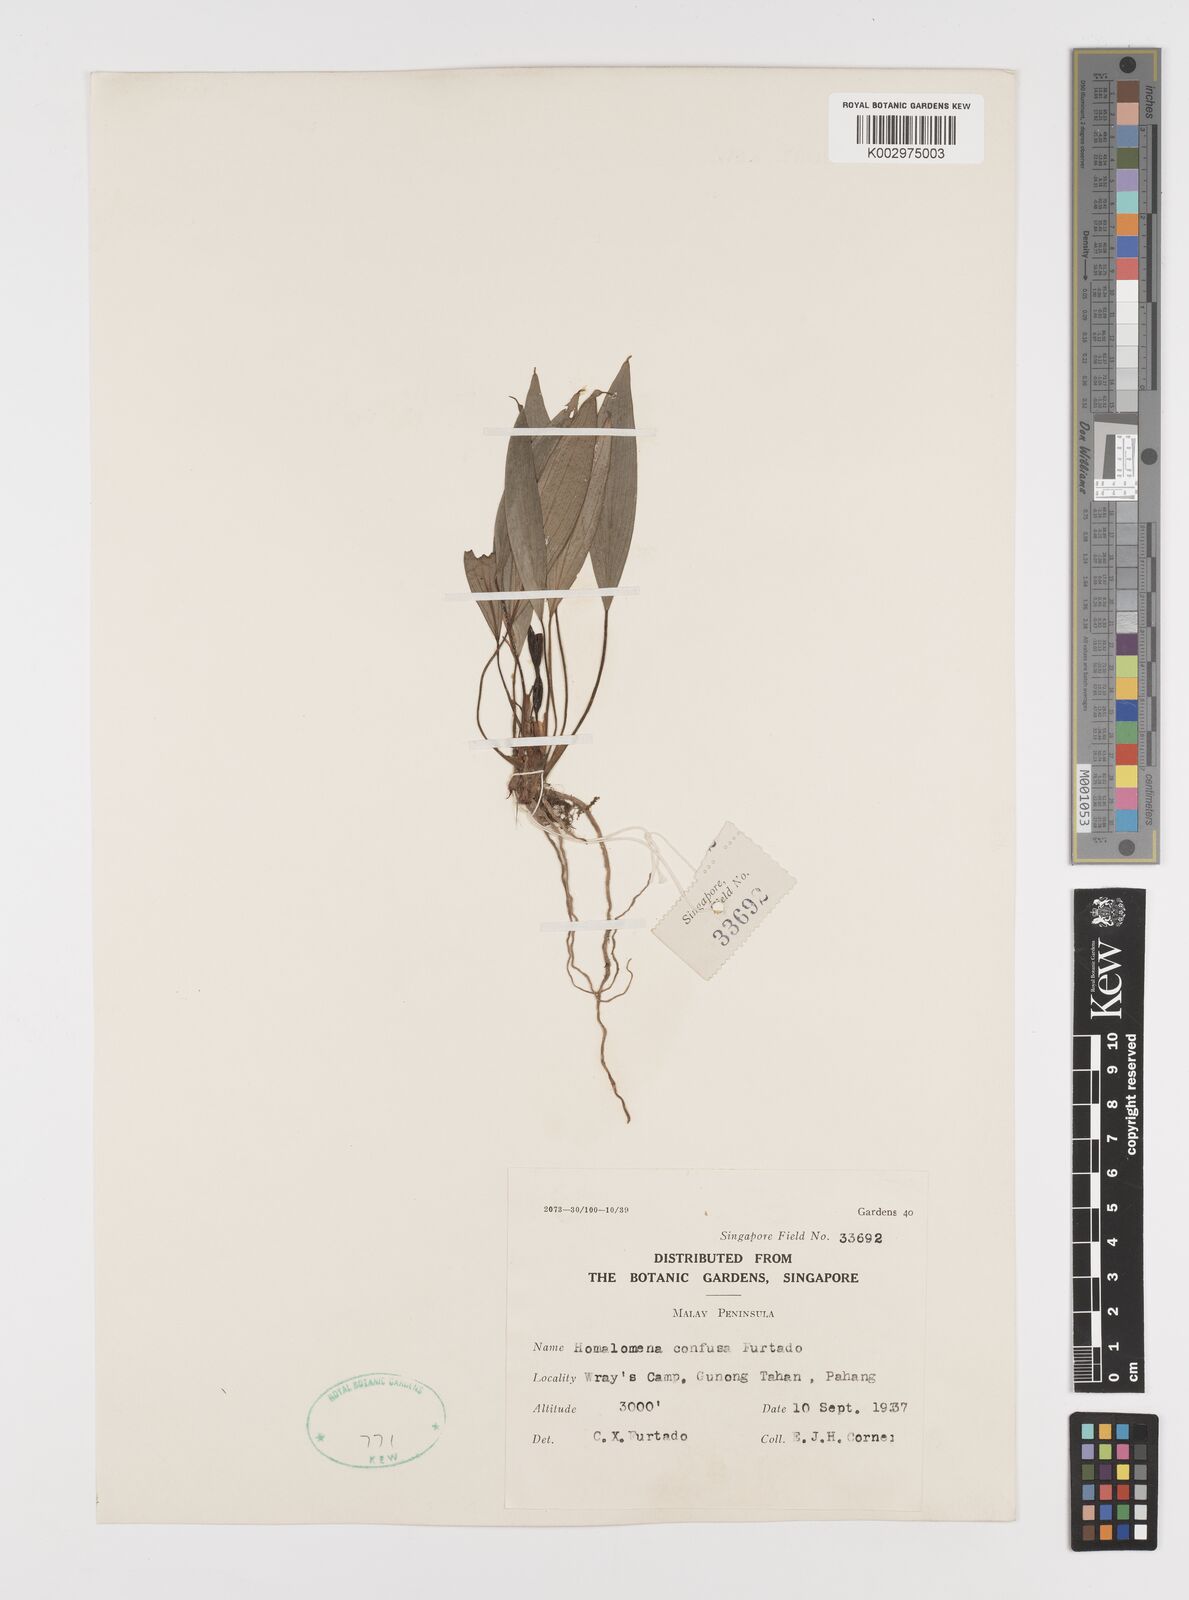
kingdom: Plantae
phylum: Tracheophyta
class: Liliopsida
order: Alismatales
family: Araceae
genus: Homalomena
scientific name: Homalomena confusa
